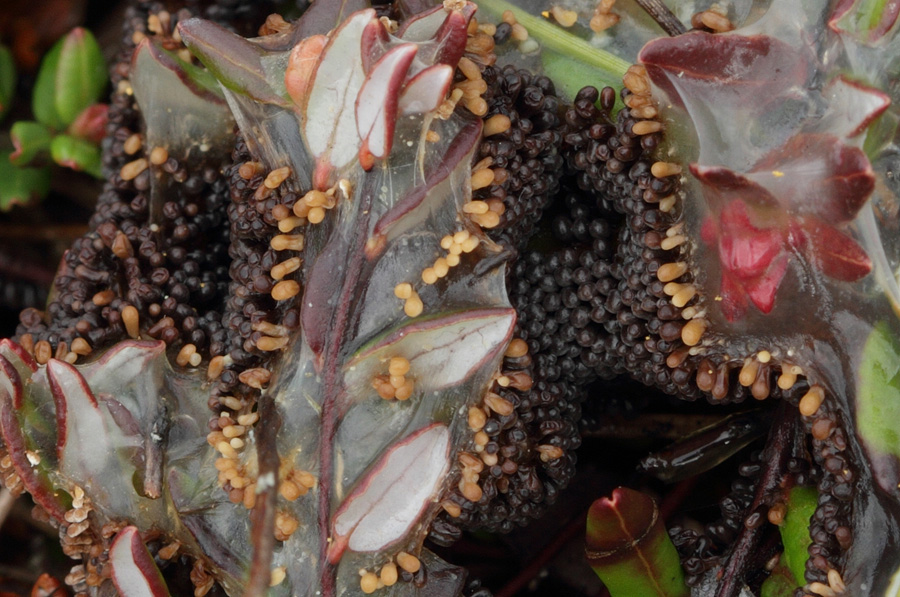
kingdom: Protozoa
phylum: Mycetozoa
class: Myxomycetes
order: Physarales
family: Physaraceae
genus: Leocarpus
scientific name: Leocarpus fragilis
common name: poleret glatfrø
